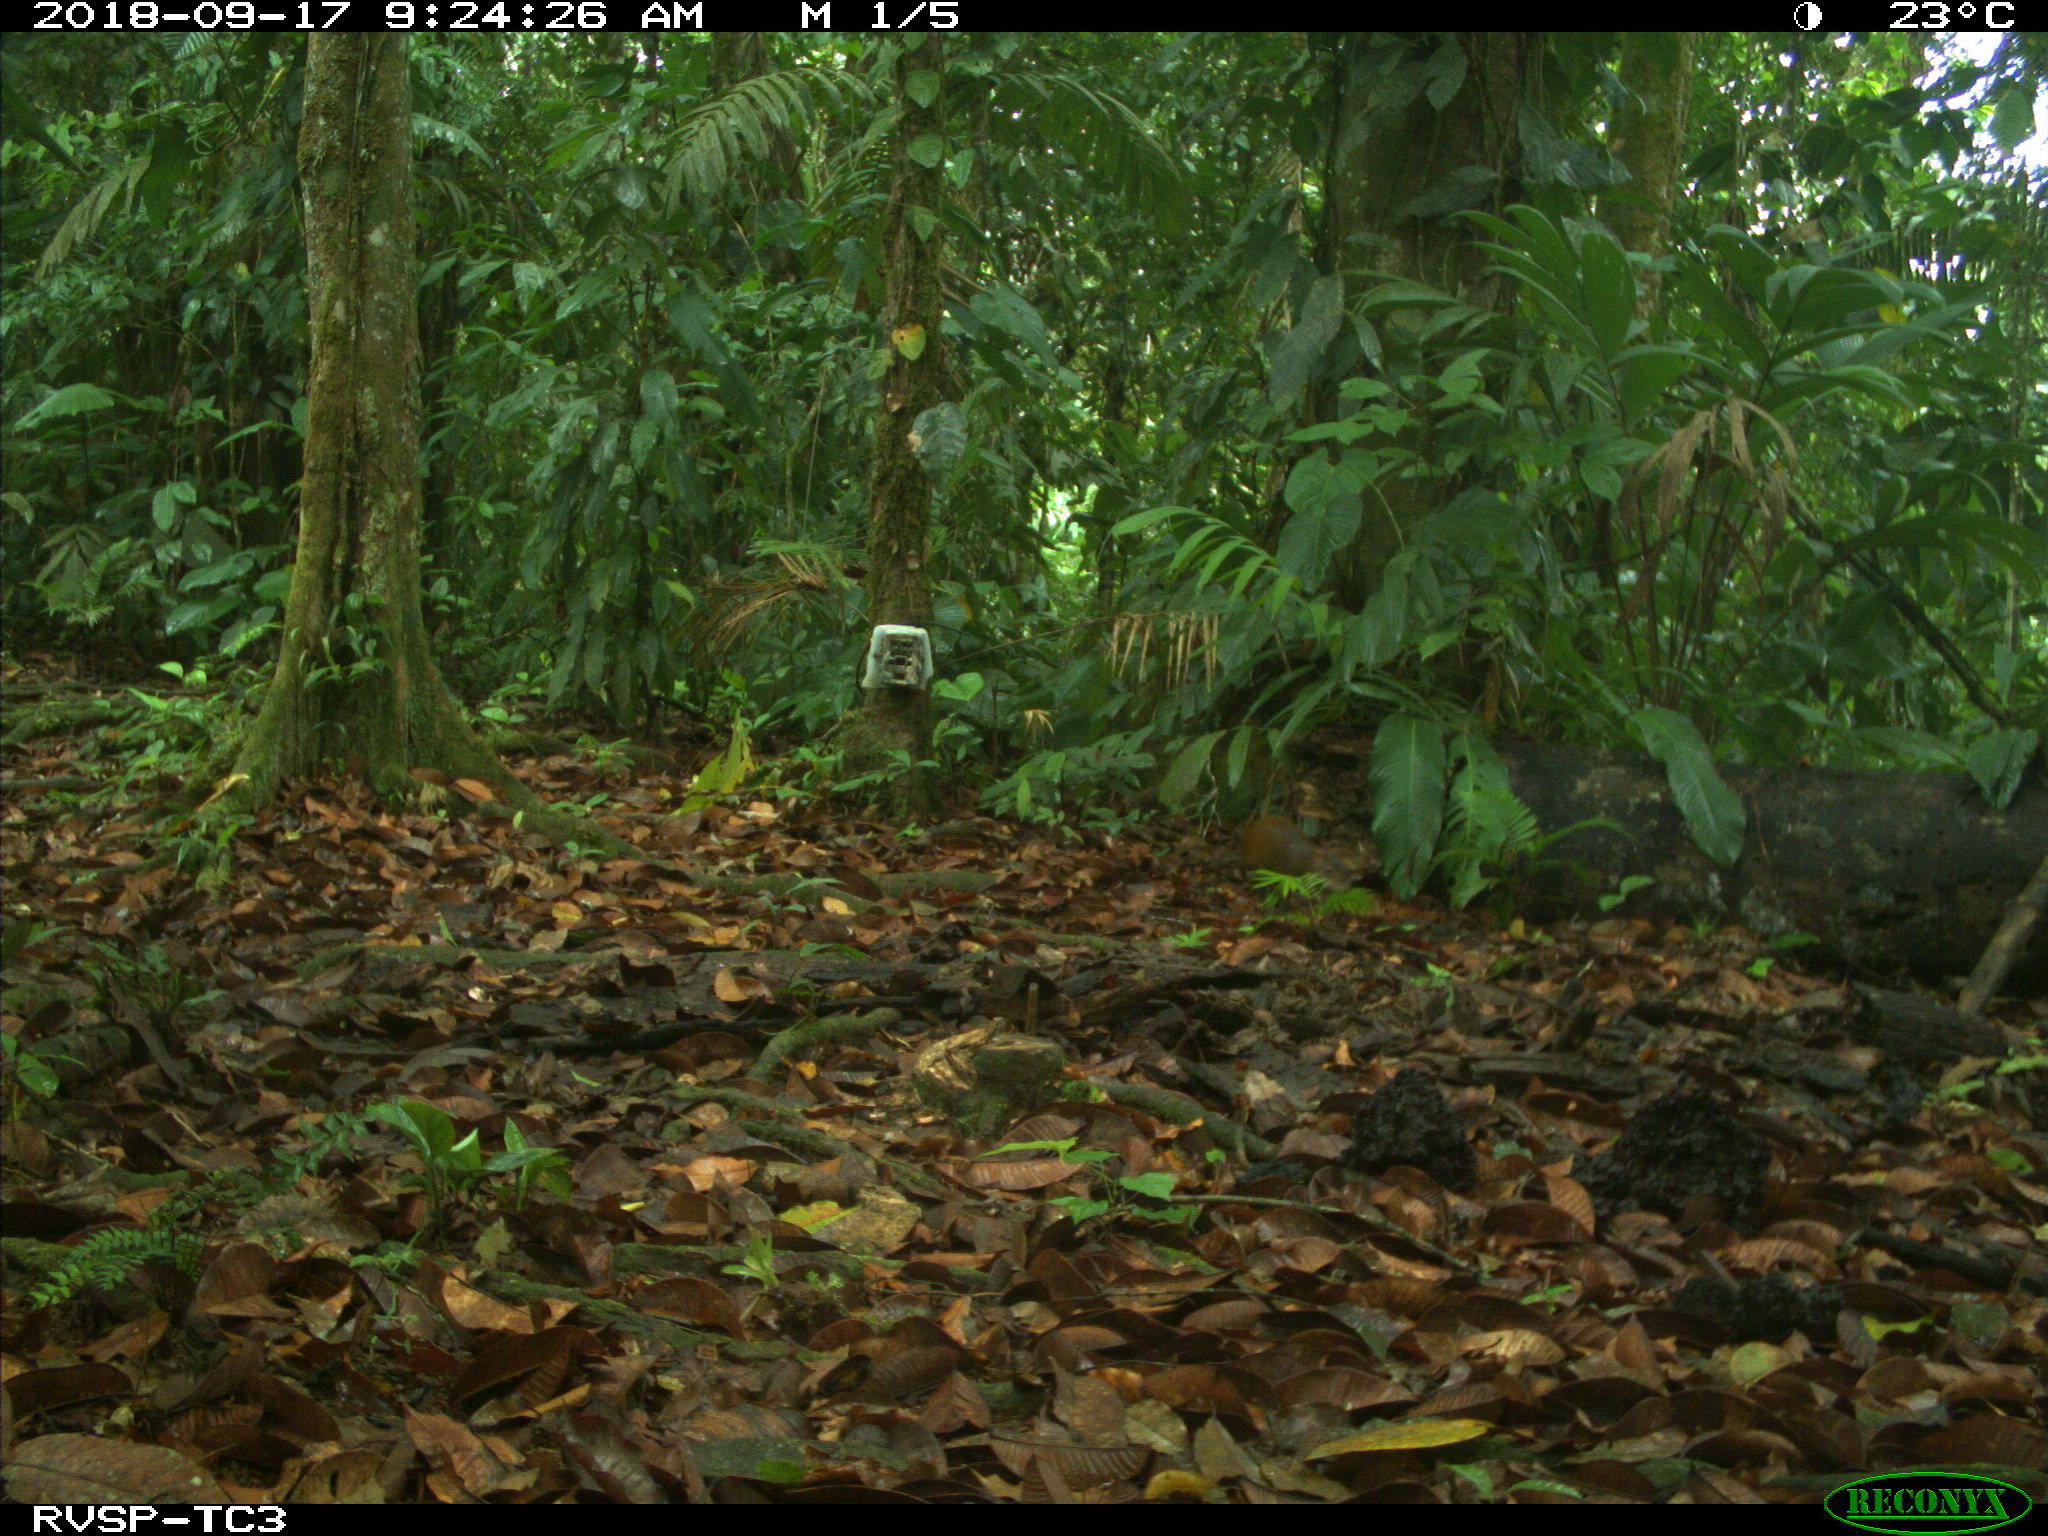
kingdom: Animalia
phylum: Chordata
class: Mammalia
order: Rodentia
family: Dasyproctidae
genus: Dasyprocta
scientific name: Dasyprocta punctata
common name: Central american agouti
